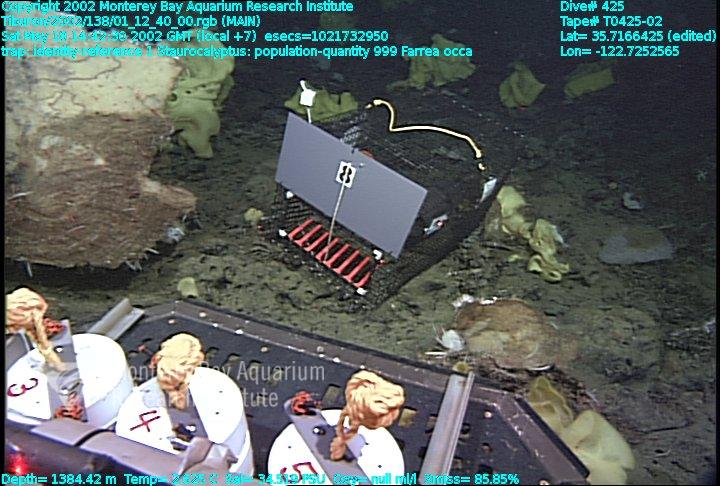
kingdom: Animalia
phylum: Porifera
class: Hexactinellida
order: Sceptrulophora
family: Farreidae
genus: Farrea
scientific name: Farrea occa
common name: Reversed glass sponge
